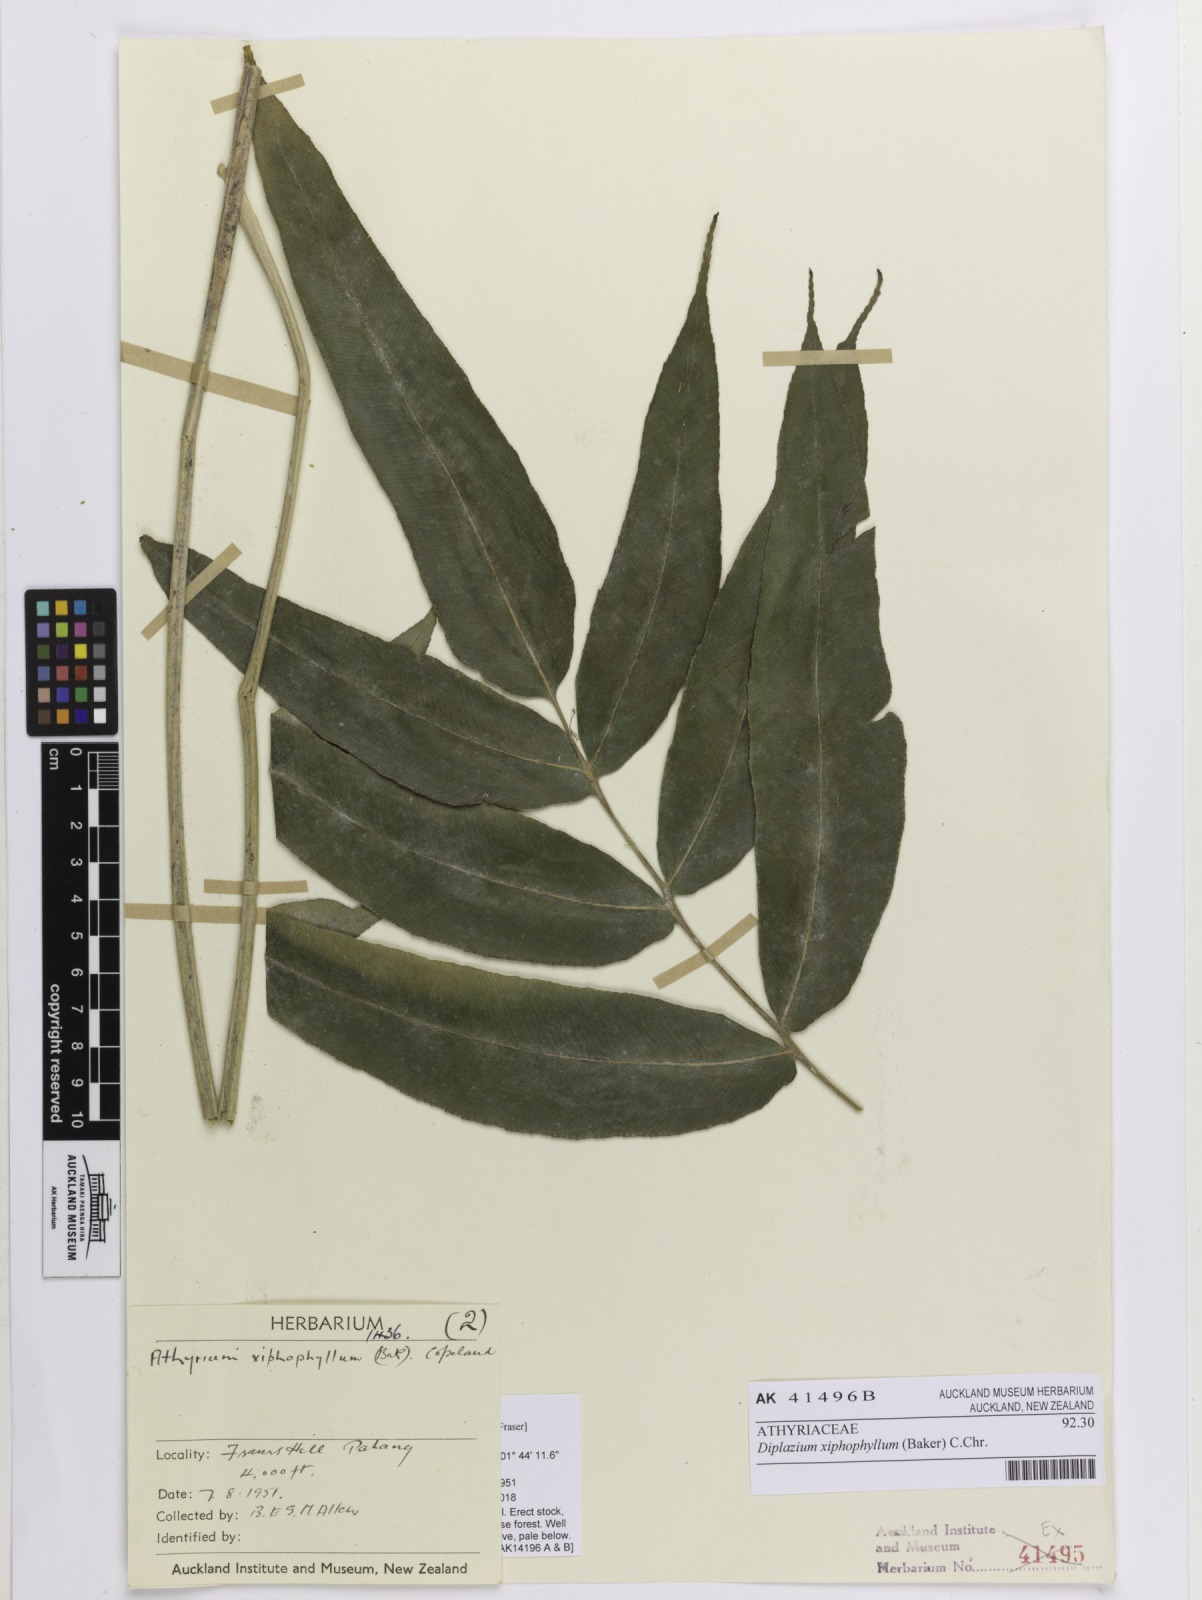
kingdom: Plantae
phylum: Tracheophyta
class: Polypodiopsida
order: Polypodiales
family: Athyriaceae
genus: Diplazium
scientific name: Diplazium xiphophyllum
